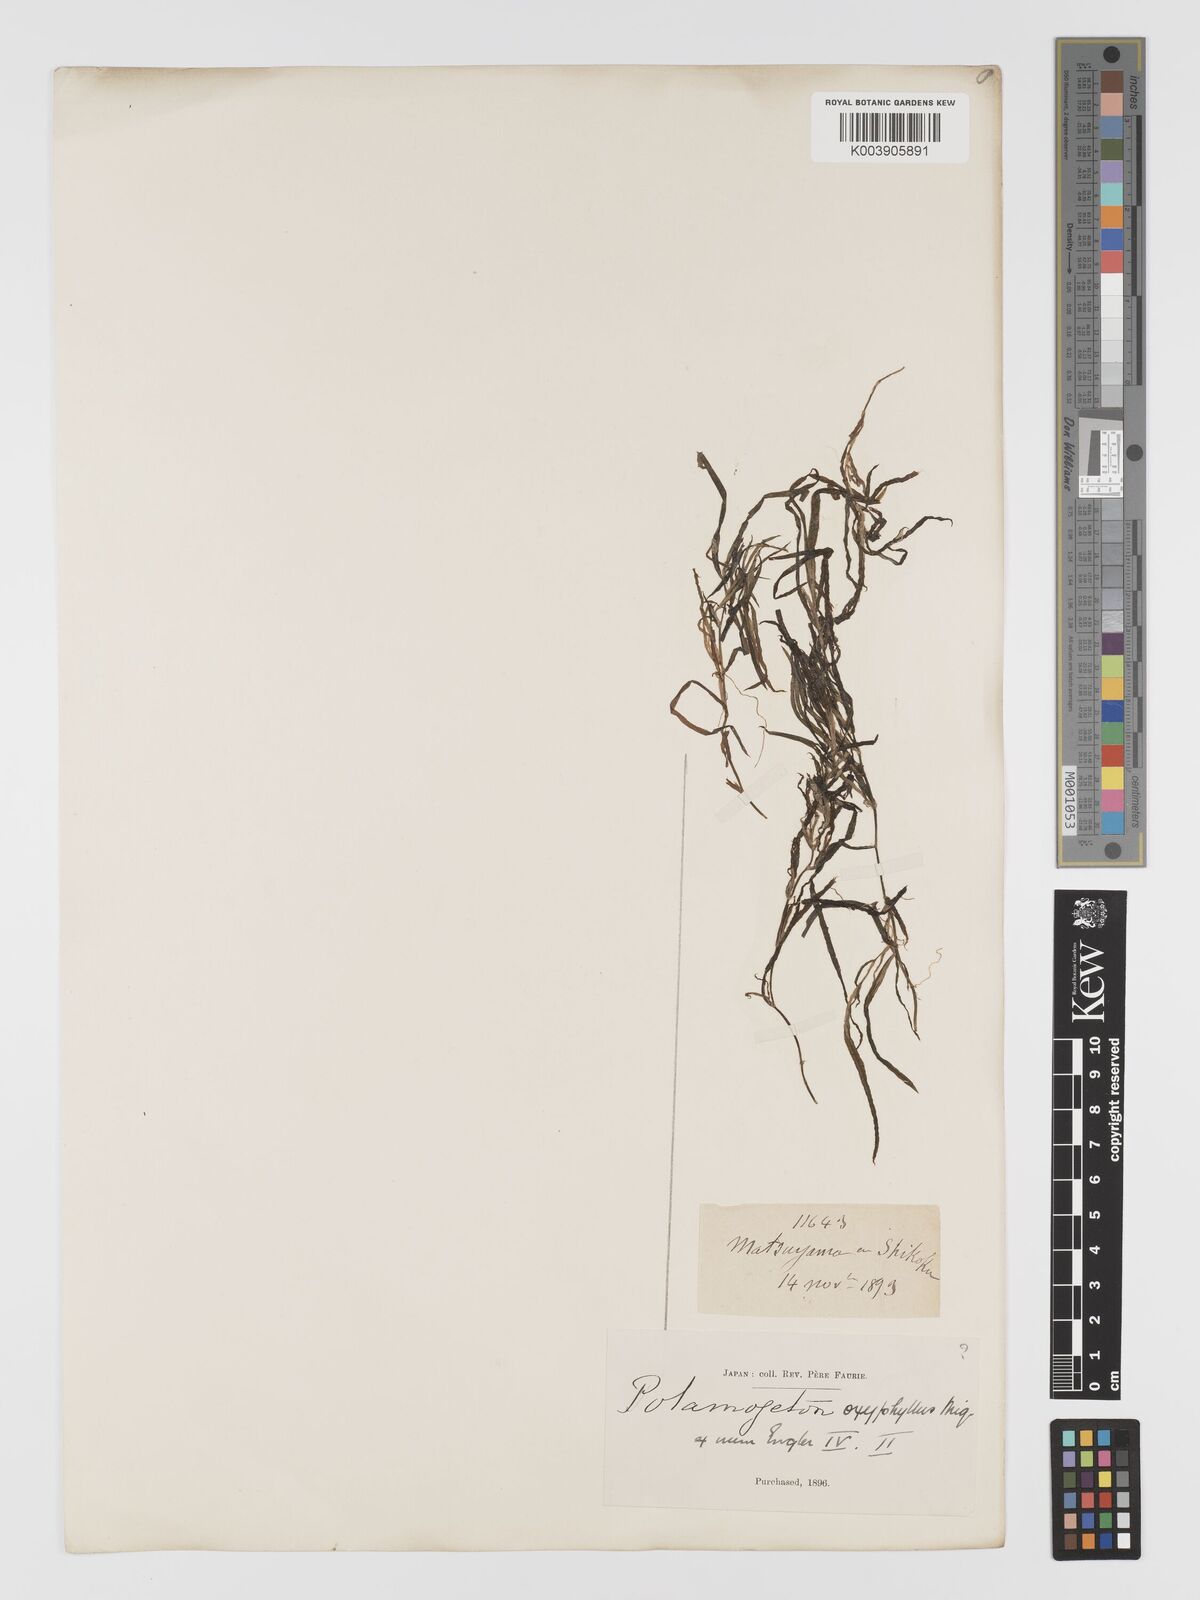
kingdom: Plantae
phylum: Tracheophyta
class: Liliopsida
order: Alismatales
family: Potamogetonaceae
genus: Potamogeton
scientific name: Potamogeton oxyphyllus
